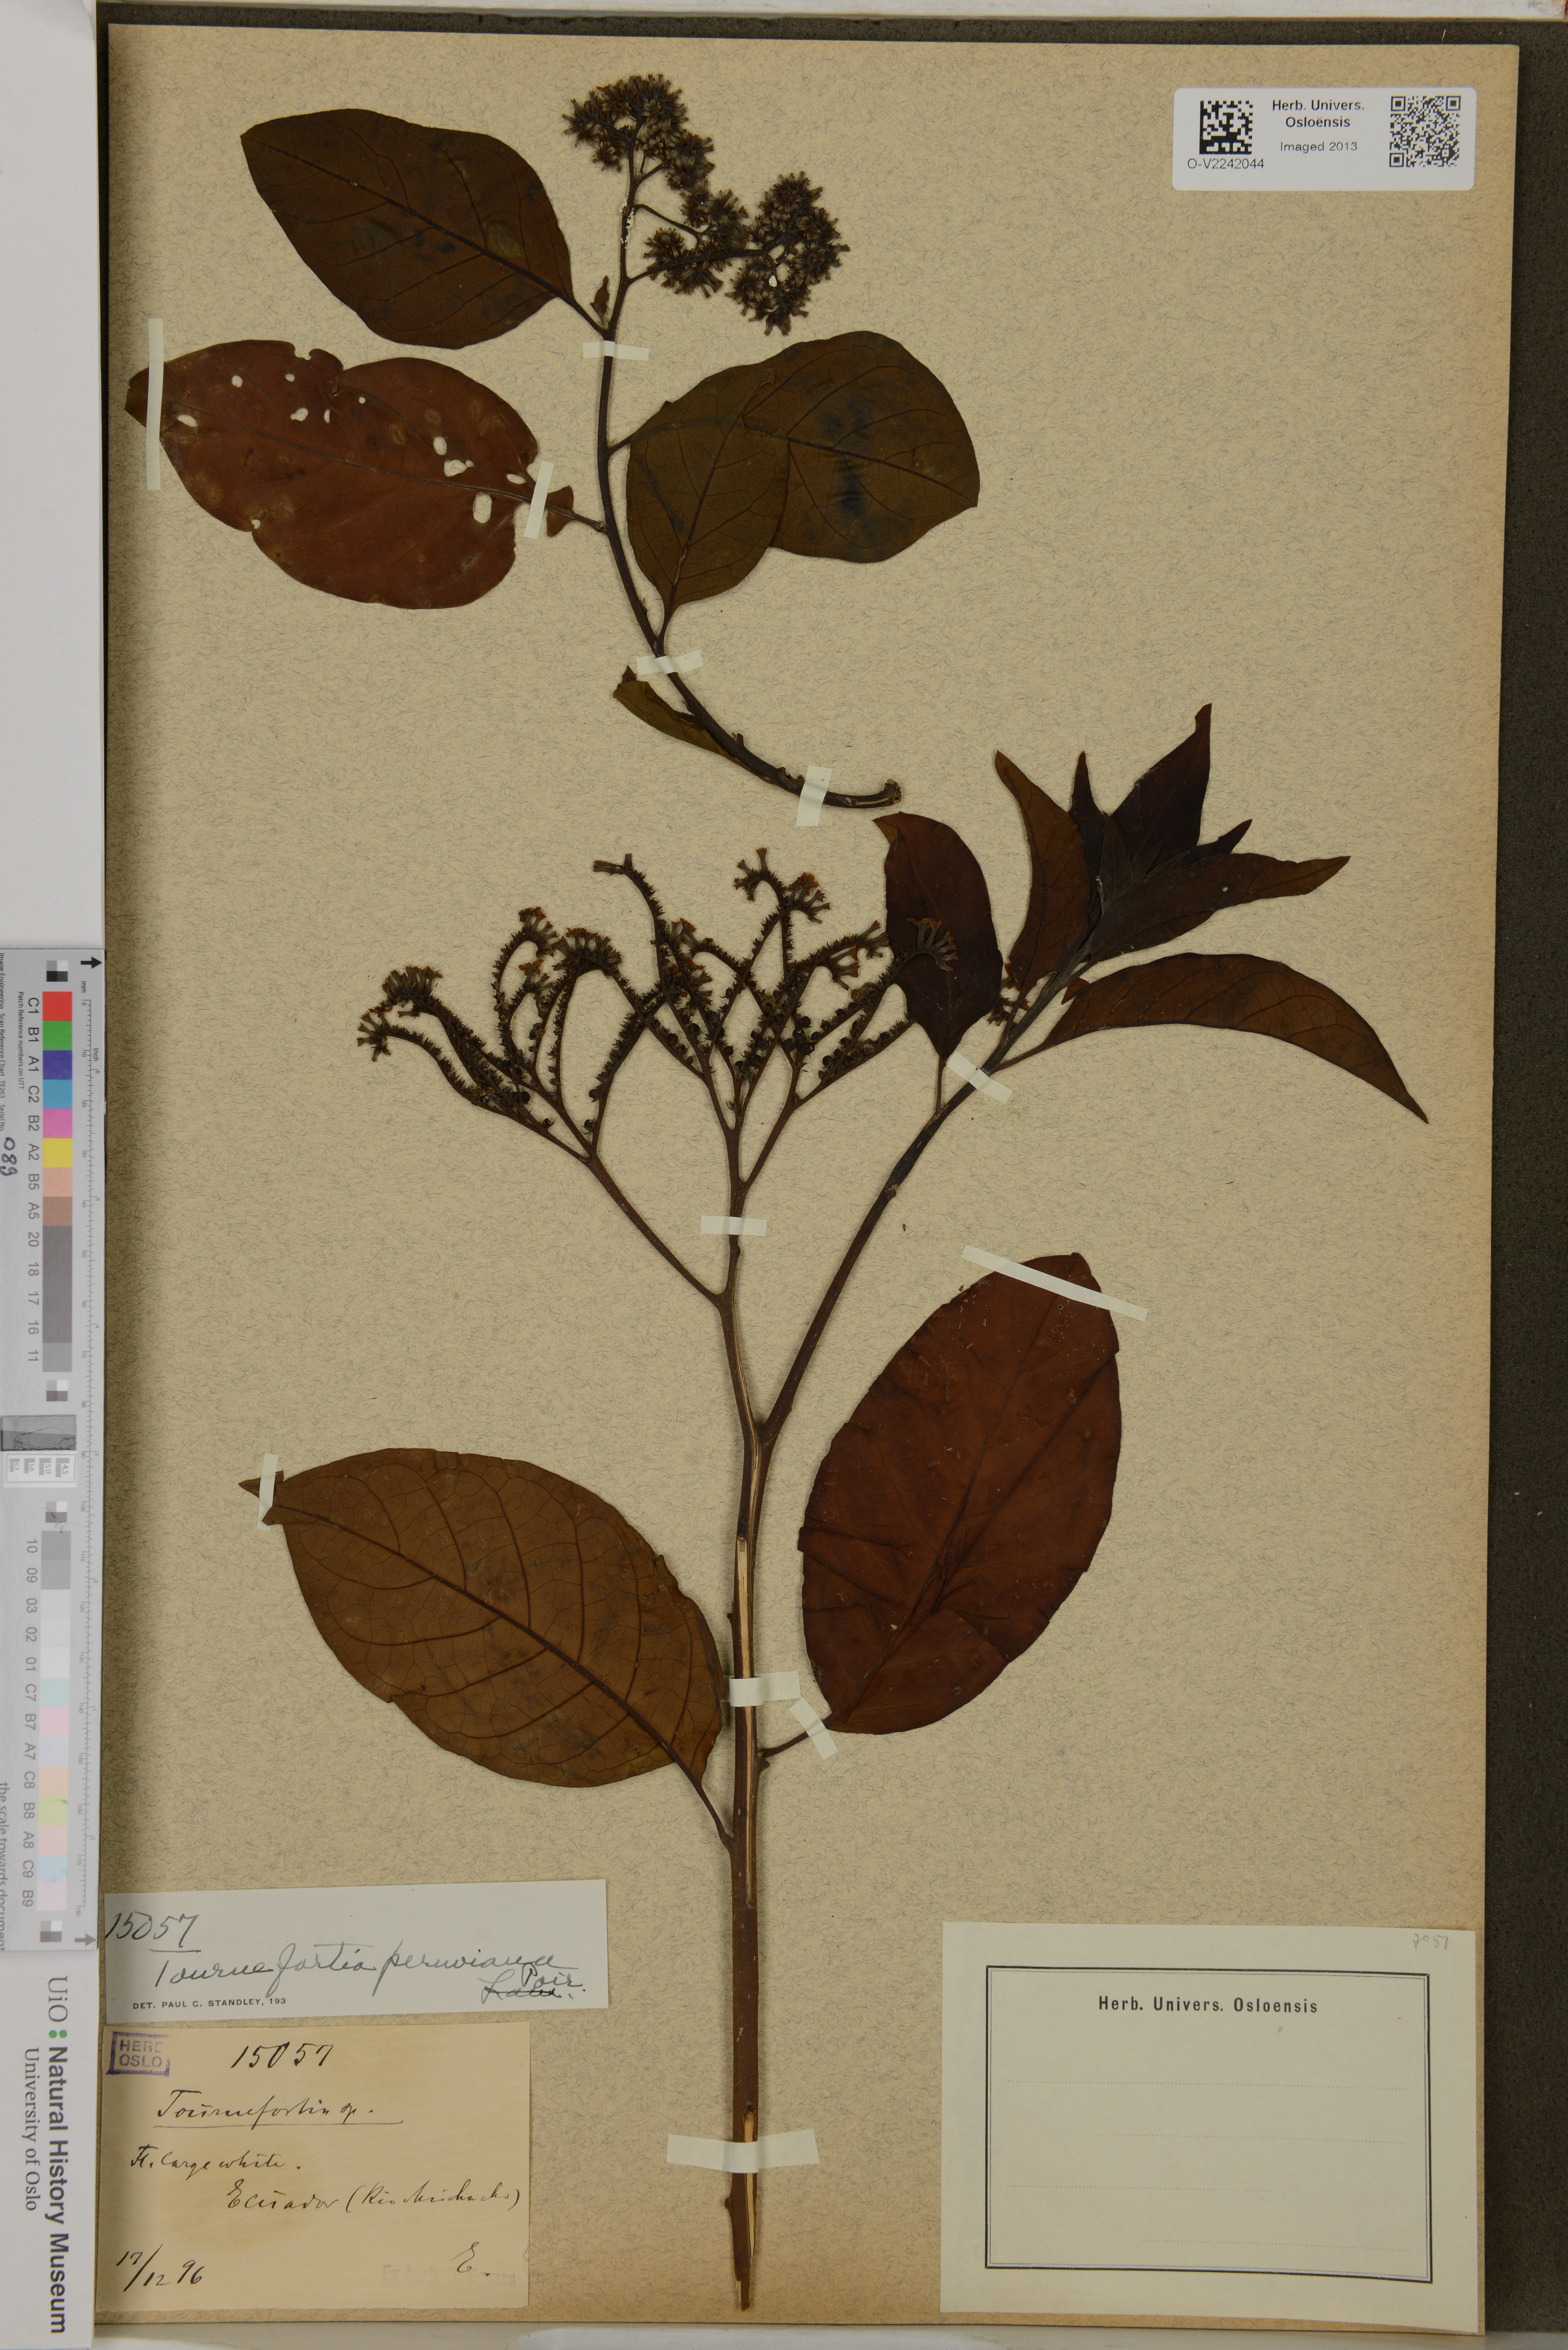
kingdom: Plantae
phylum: Tracheophyta
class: Magnoliopsida
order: Boraginales
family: Heliotropiaceae
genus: Myriopus
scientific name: Myriopus maculatus
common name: Laurel-leaf soldierbush
